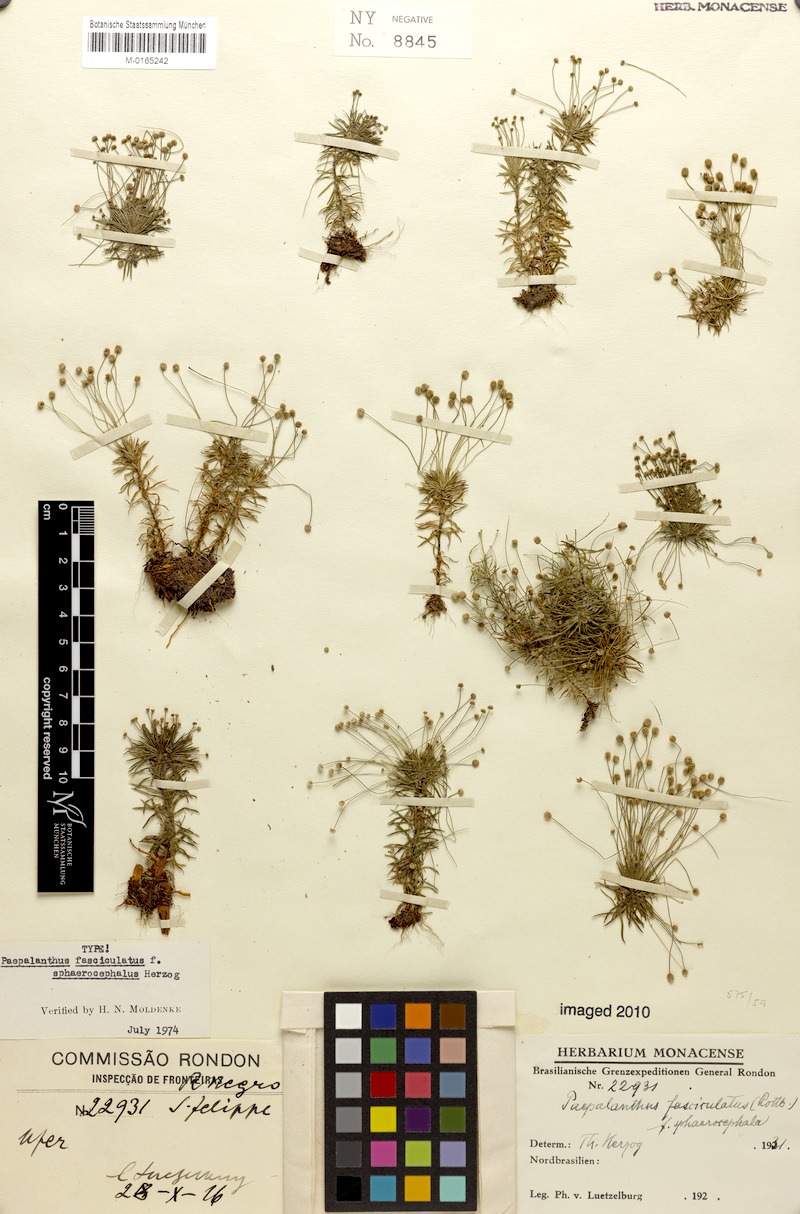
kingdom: Plantae
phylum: Tracheophyta
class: Liliopsida
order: Poales
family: Eriocaulaceae
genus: Paepalanthus
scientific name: Paepalanthus fasciculatus
